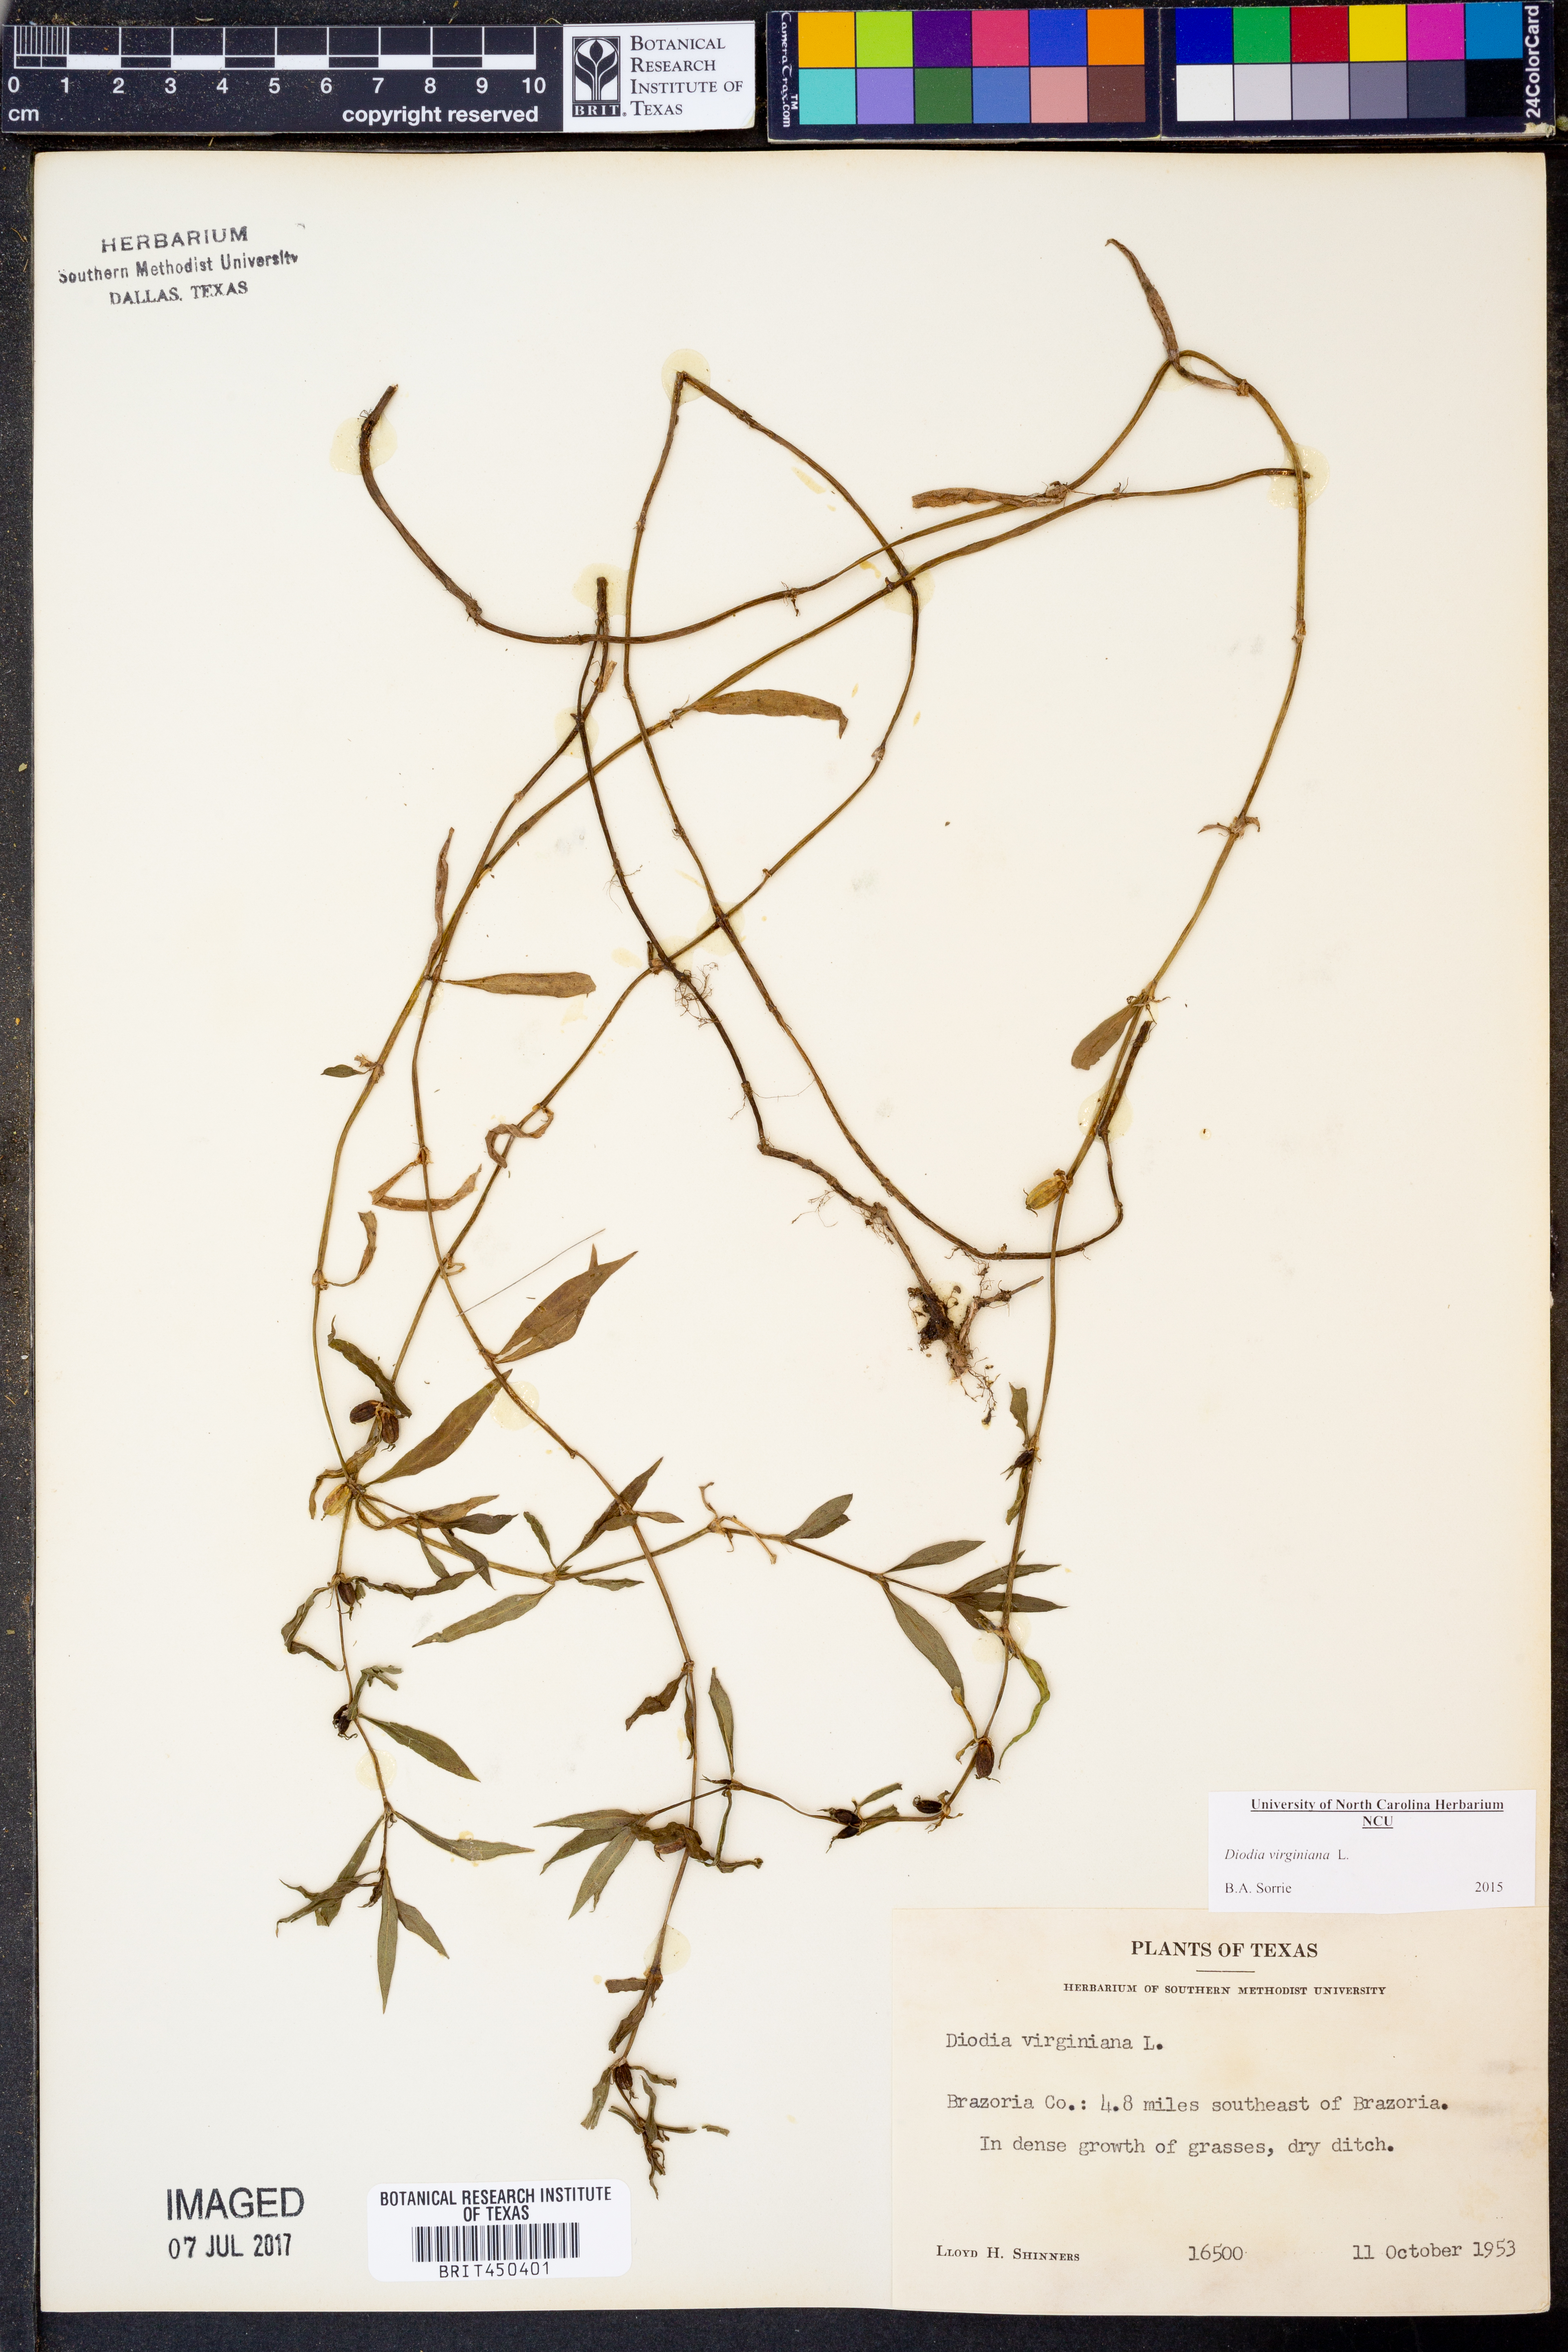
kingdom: Plantae
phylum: Tracheophyta
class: Magnoliopsida
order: Gentianales
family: Rubiaceae
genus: Diodia
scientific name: Diodia virginiana
